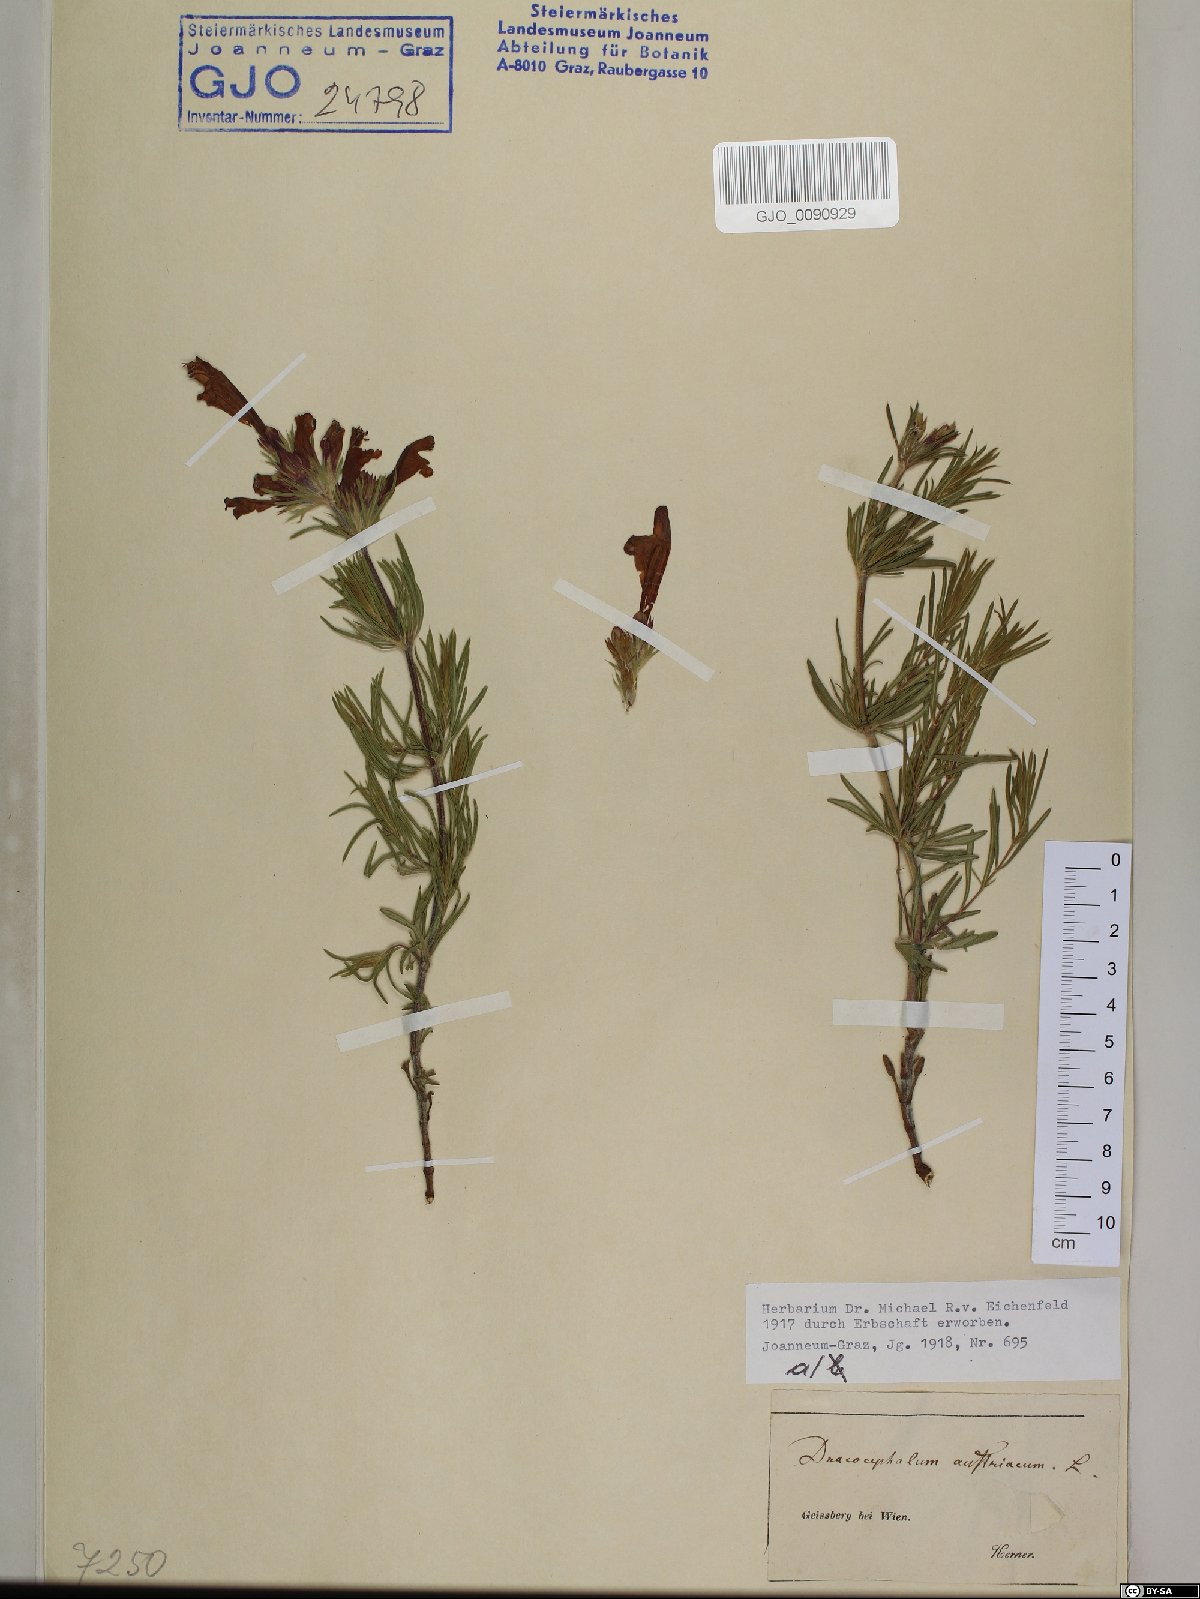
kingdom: Plantae
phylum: Tracheophyta
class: Magnoliopsida
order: Lamiales
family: Lamiaceae
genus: Dracocephalum
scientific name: Dracocephalum austriacum
